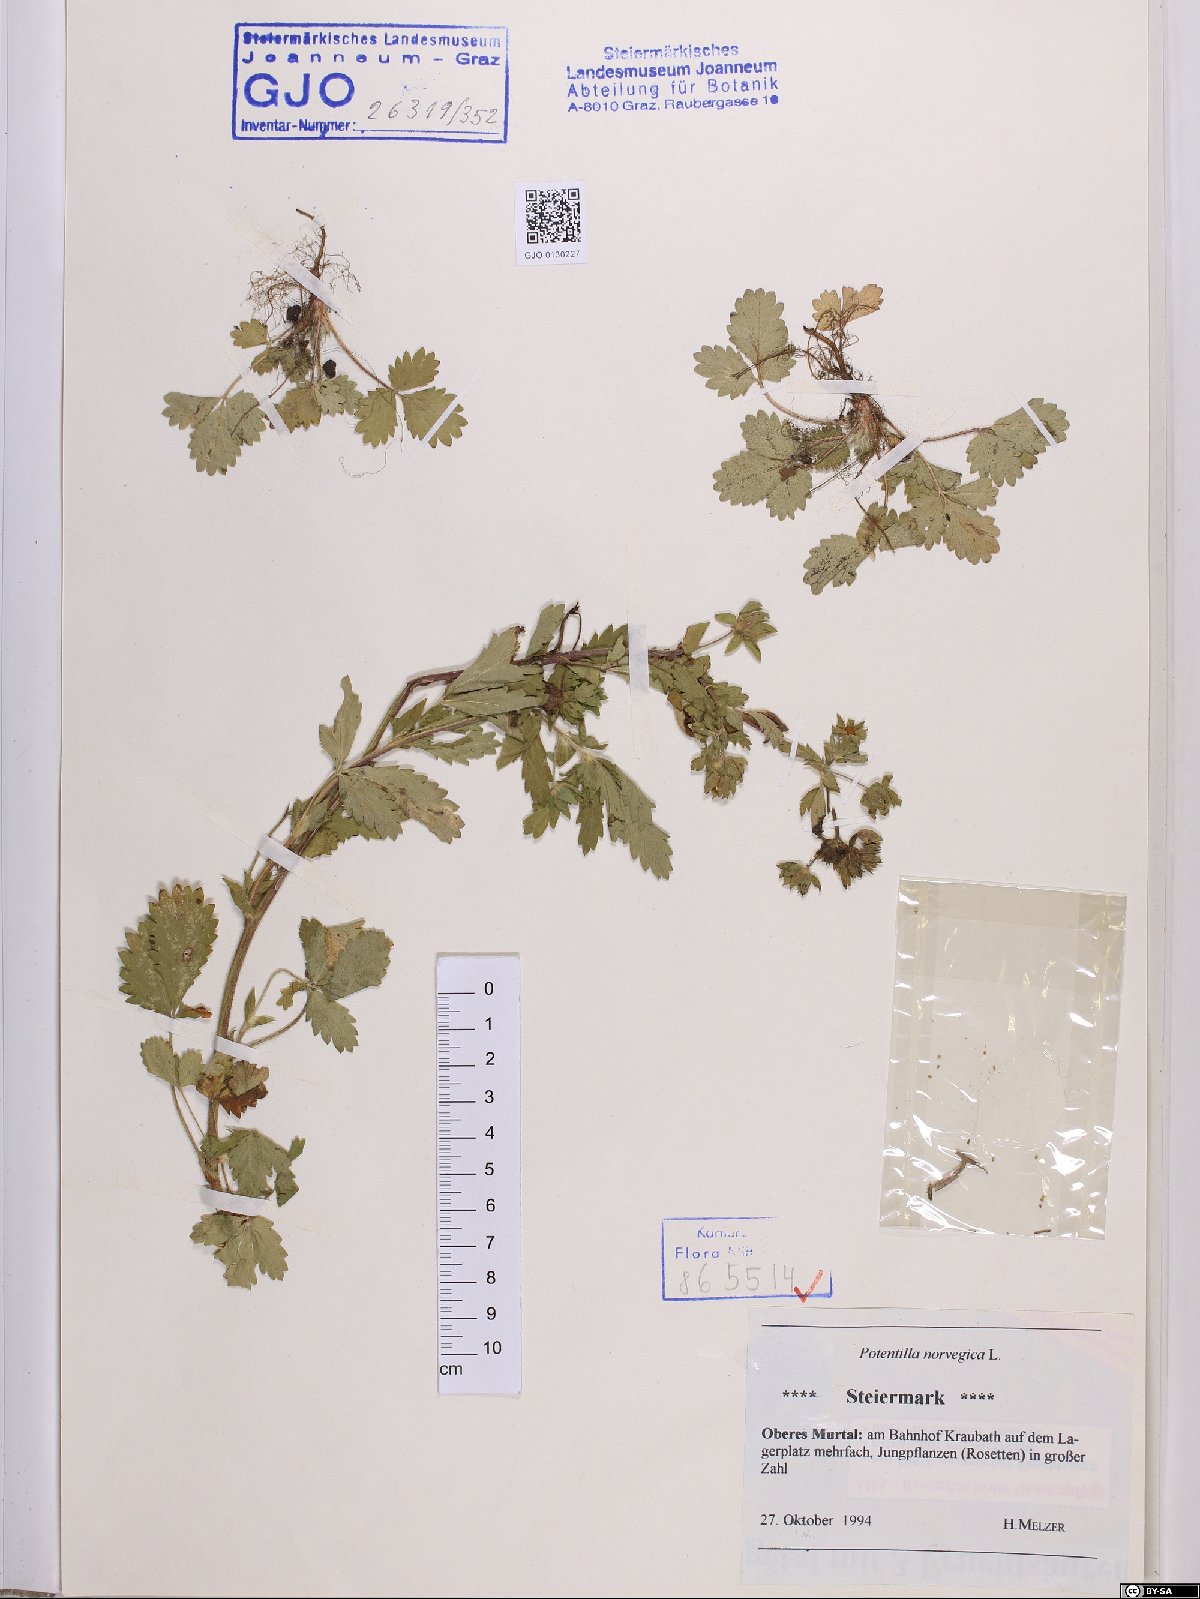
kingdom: Plantae
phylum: Tracheophyta
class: Magnoliopsida
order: Rosales
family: Rosaceae
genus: Potentilla
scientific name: Potentilla norvegica
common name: Ternate-leaved cinquefoil
